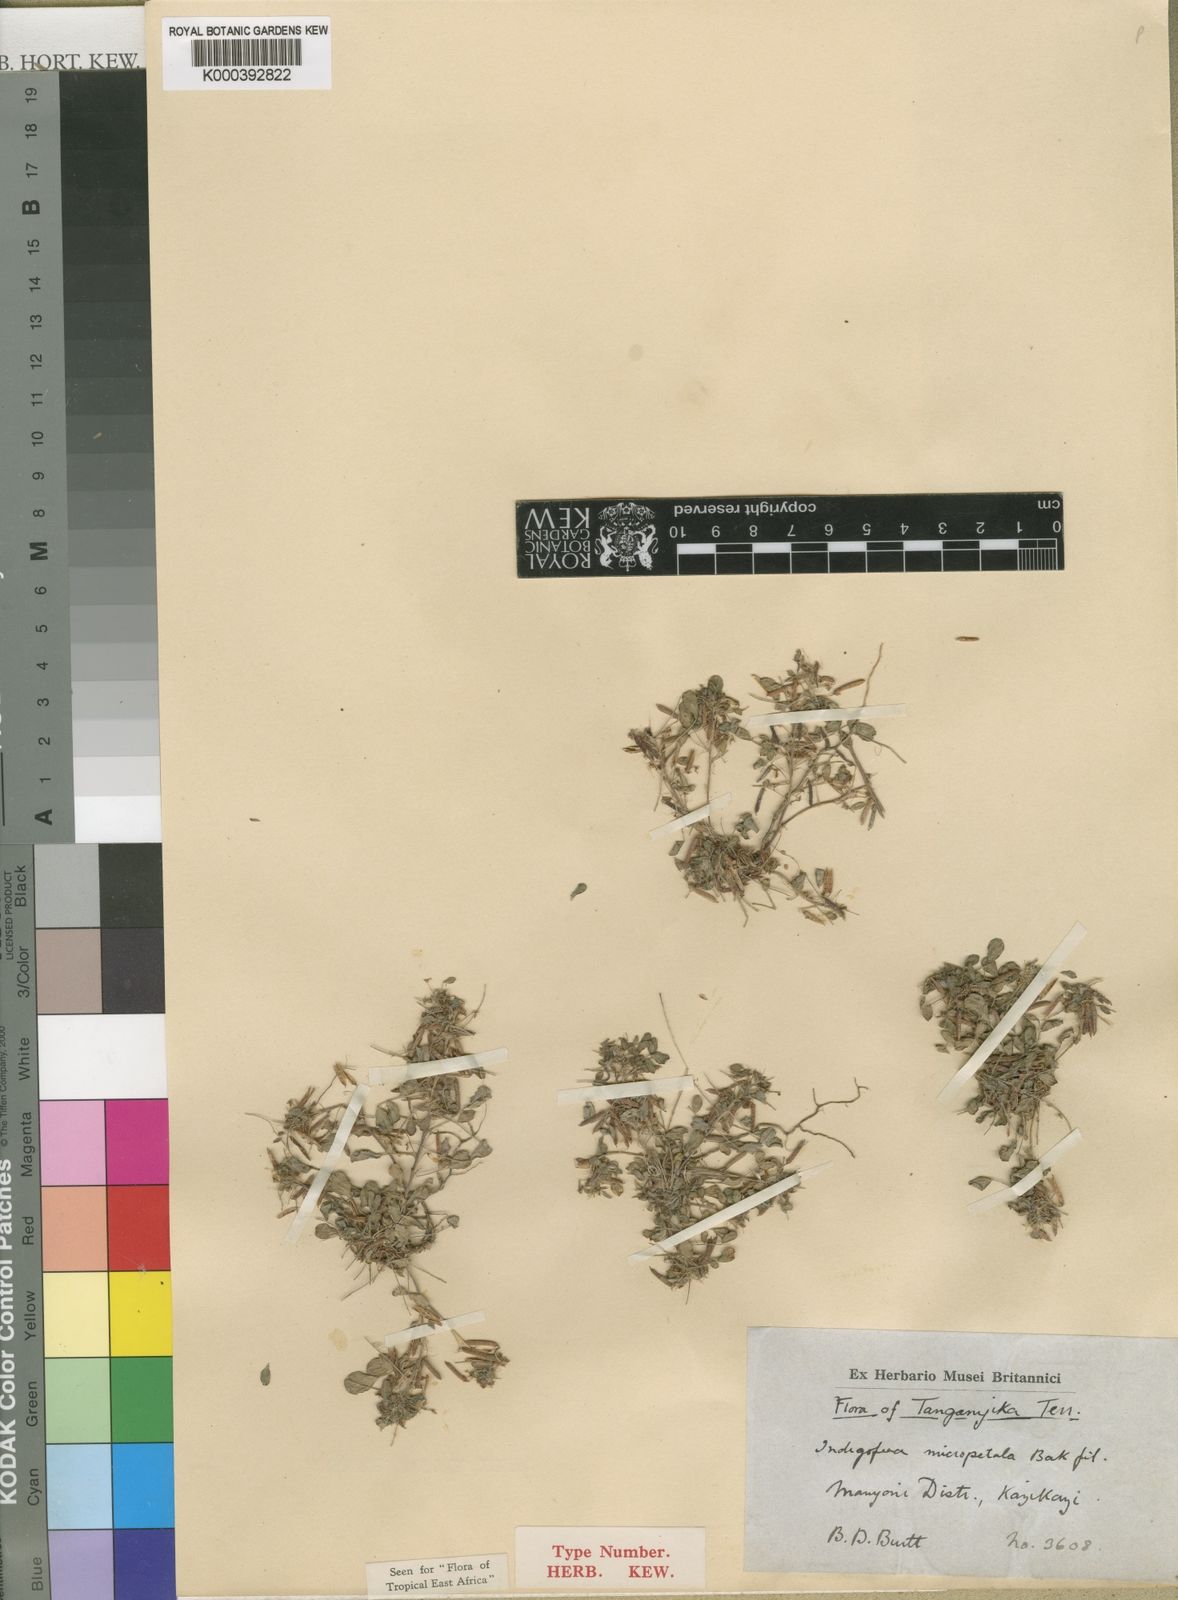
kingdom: Plantae
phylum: Tracheophyta
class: Magnoliopsida
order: Fabales
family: Fabaceae
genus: Indigofera
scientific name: Indigofera micropetala
